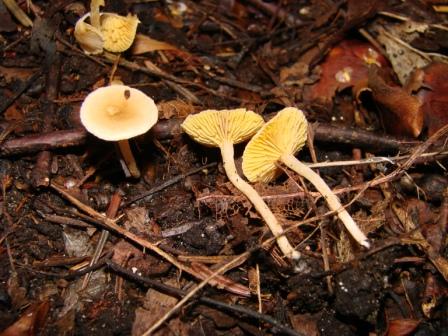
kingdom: Fungi
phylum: Basidiomycota
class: Agaricomycetes
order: Agaricales
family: Tubariaceae
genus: Tubaria
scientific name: Tubaria dispersa
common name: tjørne-fnughat
